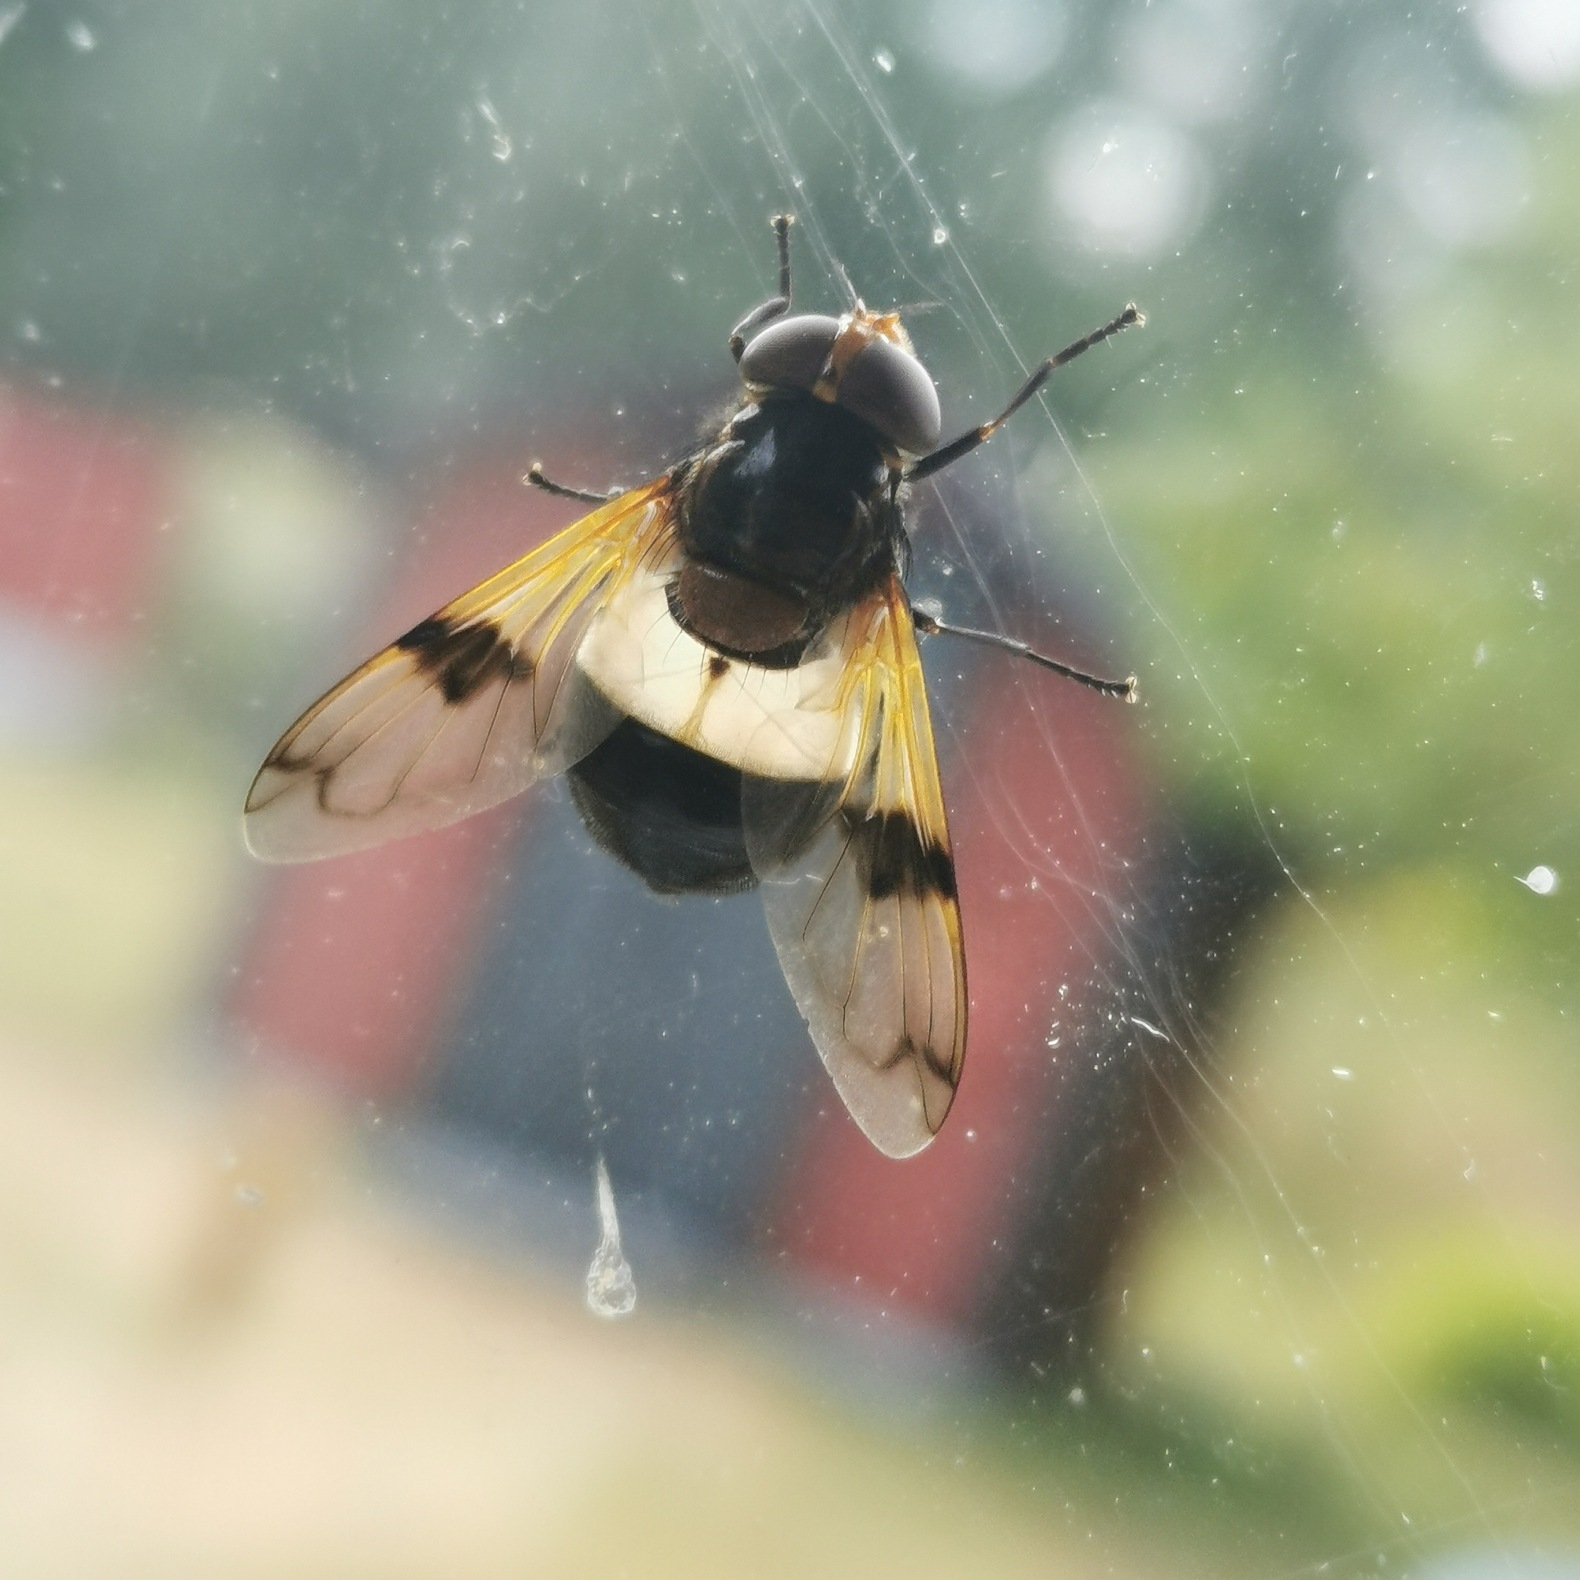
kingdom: Animalia
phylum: Arthropoda
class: Insecta
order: Diptera
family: Syrphidae
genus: Volucella
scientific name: Volucella pellucens
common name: Hvidbåndet humlesvirreflue
